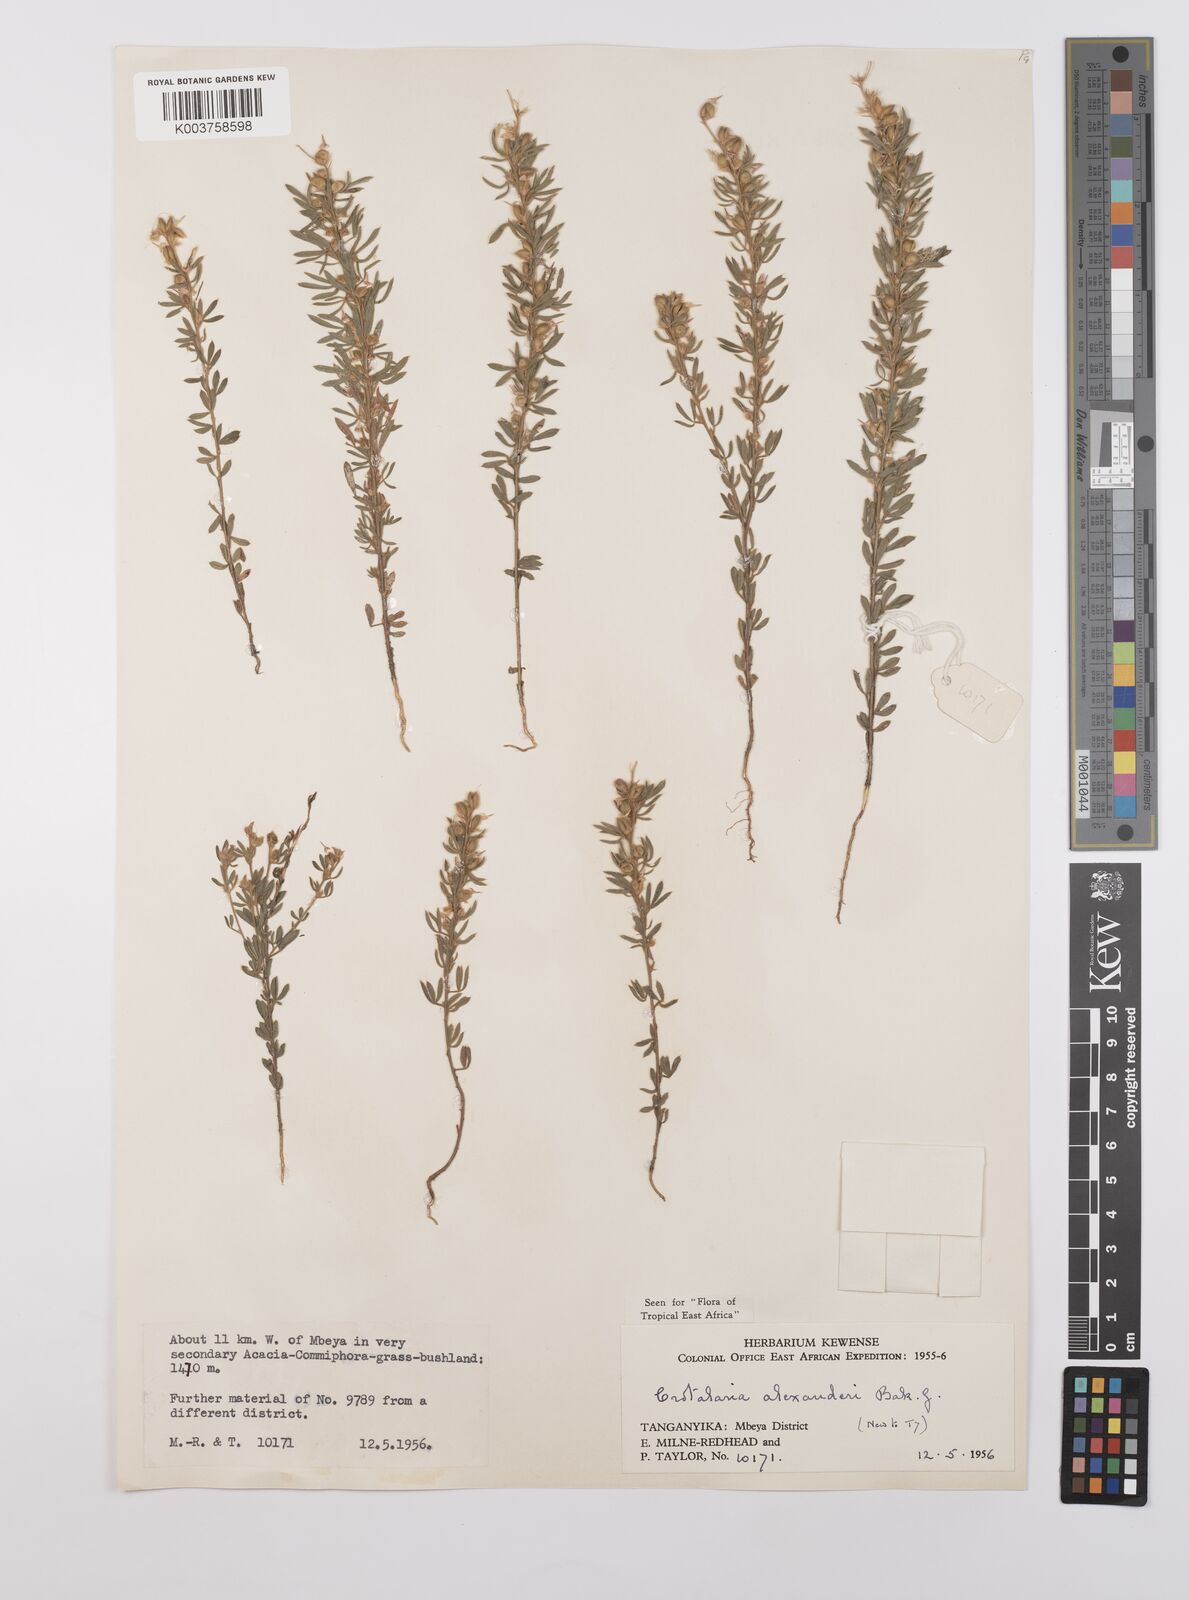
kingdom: Plantae
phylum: Tracheophyta
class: Magnoliopsida
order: Fabales
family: Fabaceae
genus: Crotalaria
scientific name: Crotalaria alexandri
